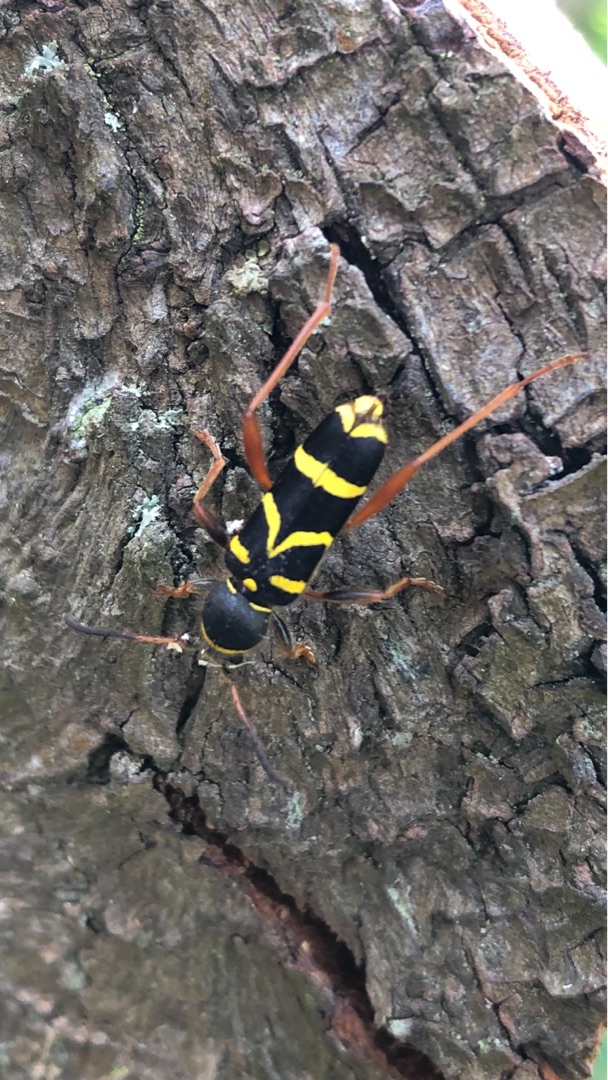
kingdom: Animalia
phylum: Arthropoda
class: Insecta
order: Coleoptera
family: Cerambycidae
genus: Clytus
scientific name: Clytus arietis
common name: Lille hvepsebuk
